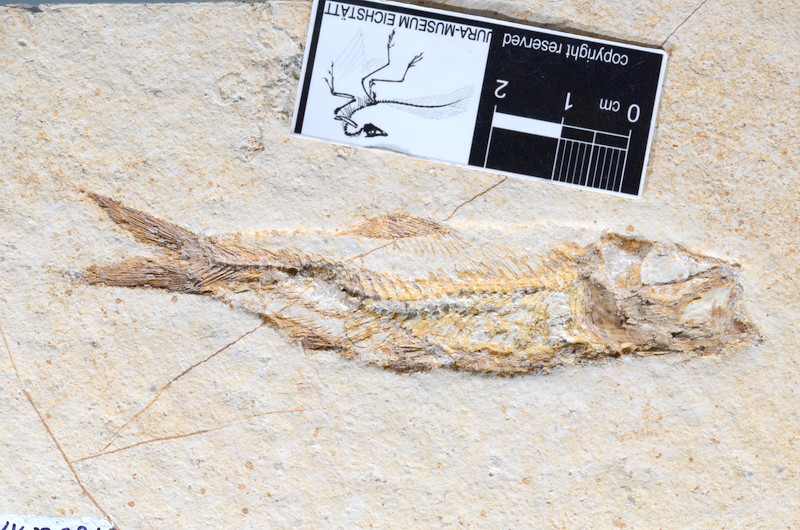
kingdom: Animalia
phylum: Chordata
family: Ascalaboidae
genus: Ascalabos
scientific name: Ascalabos voithii
